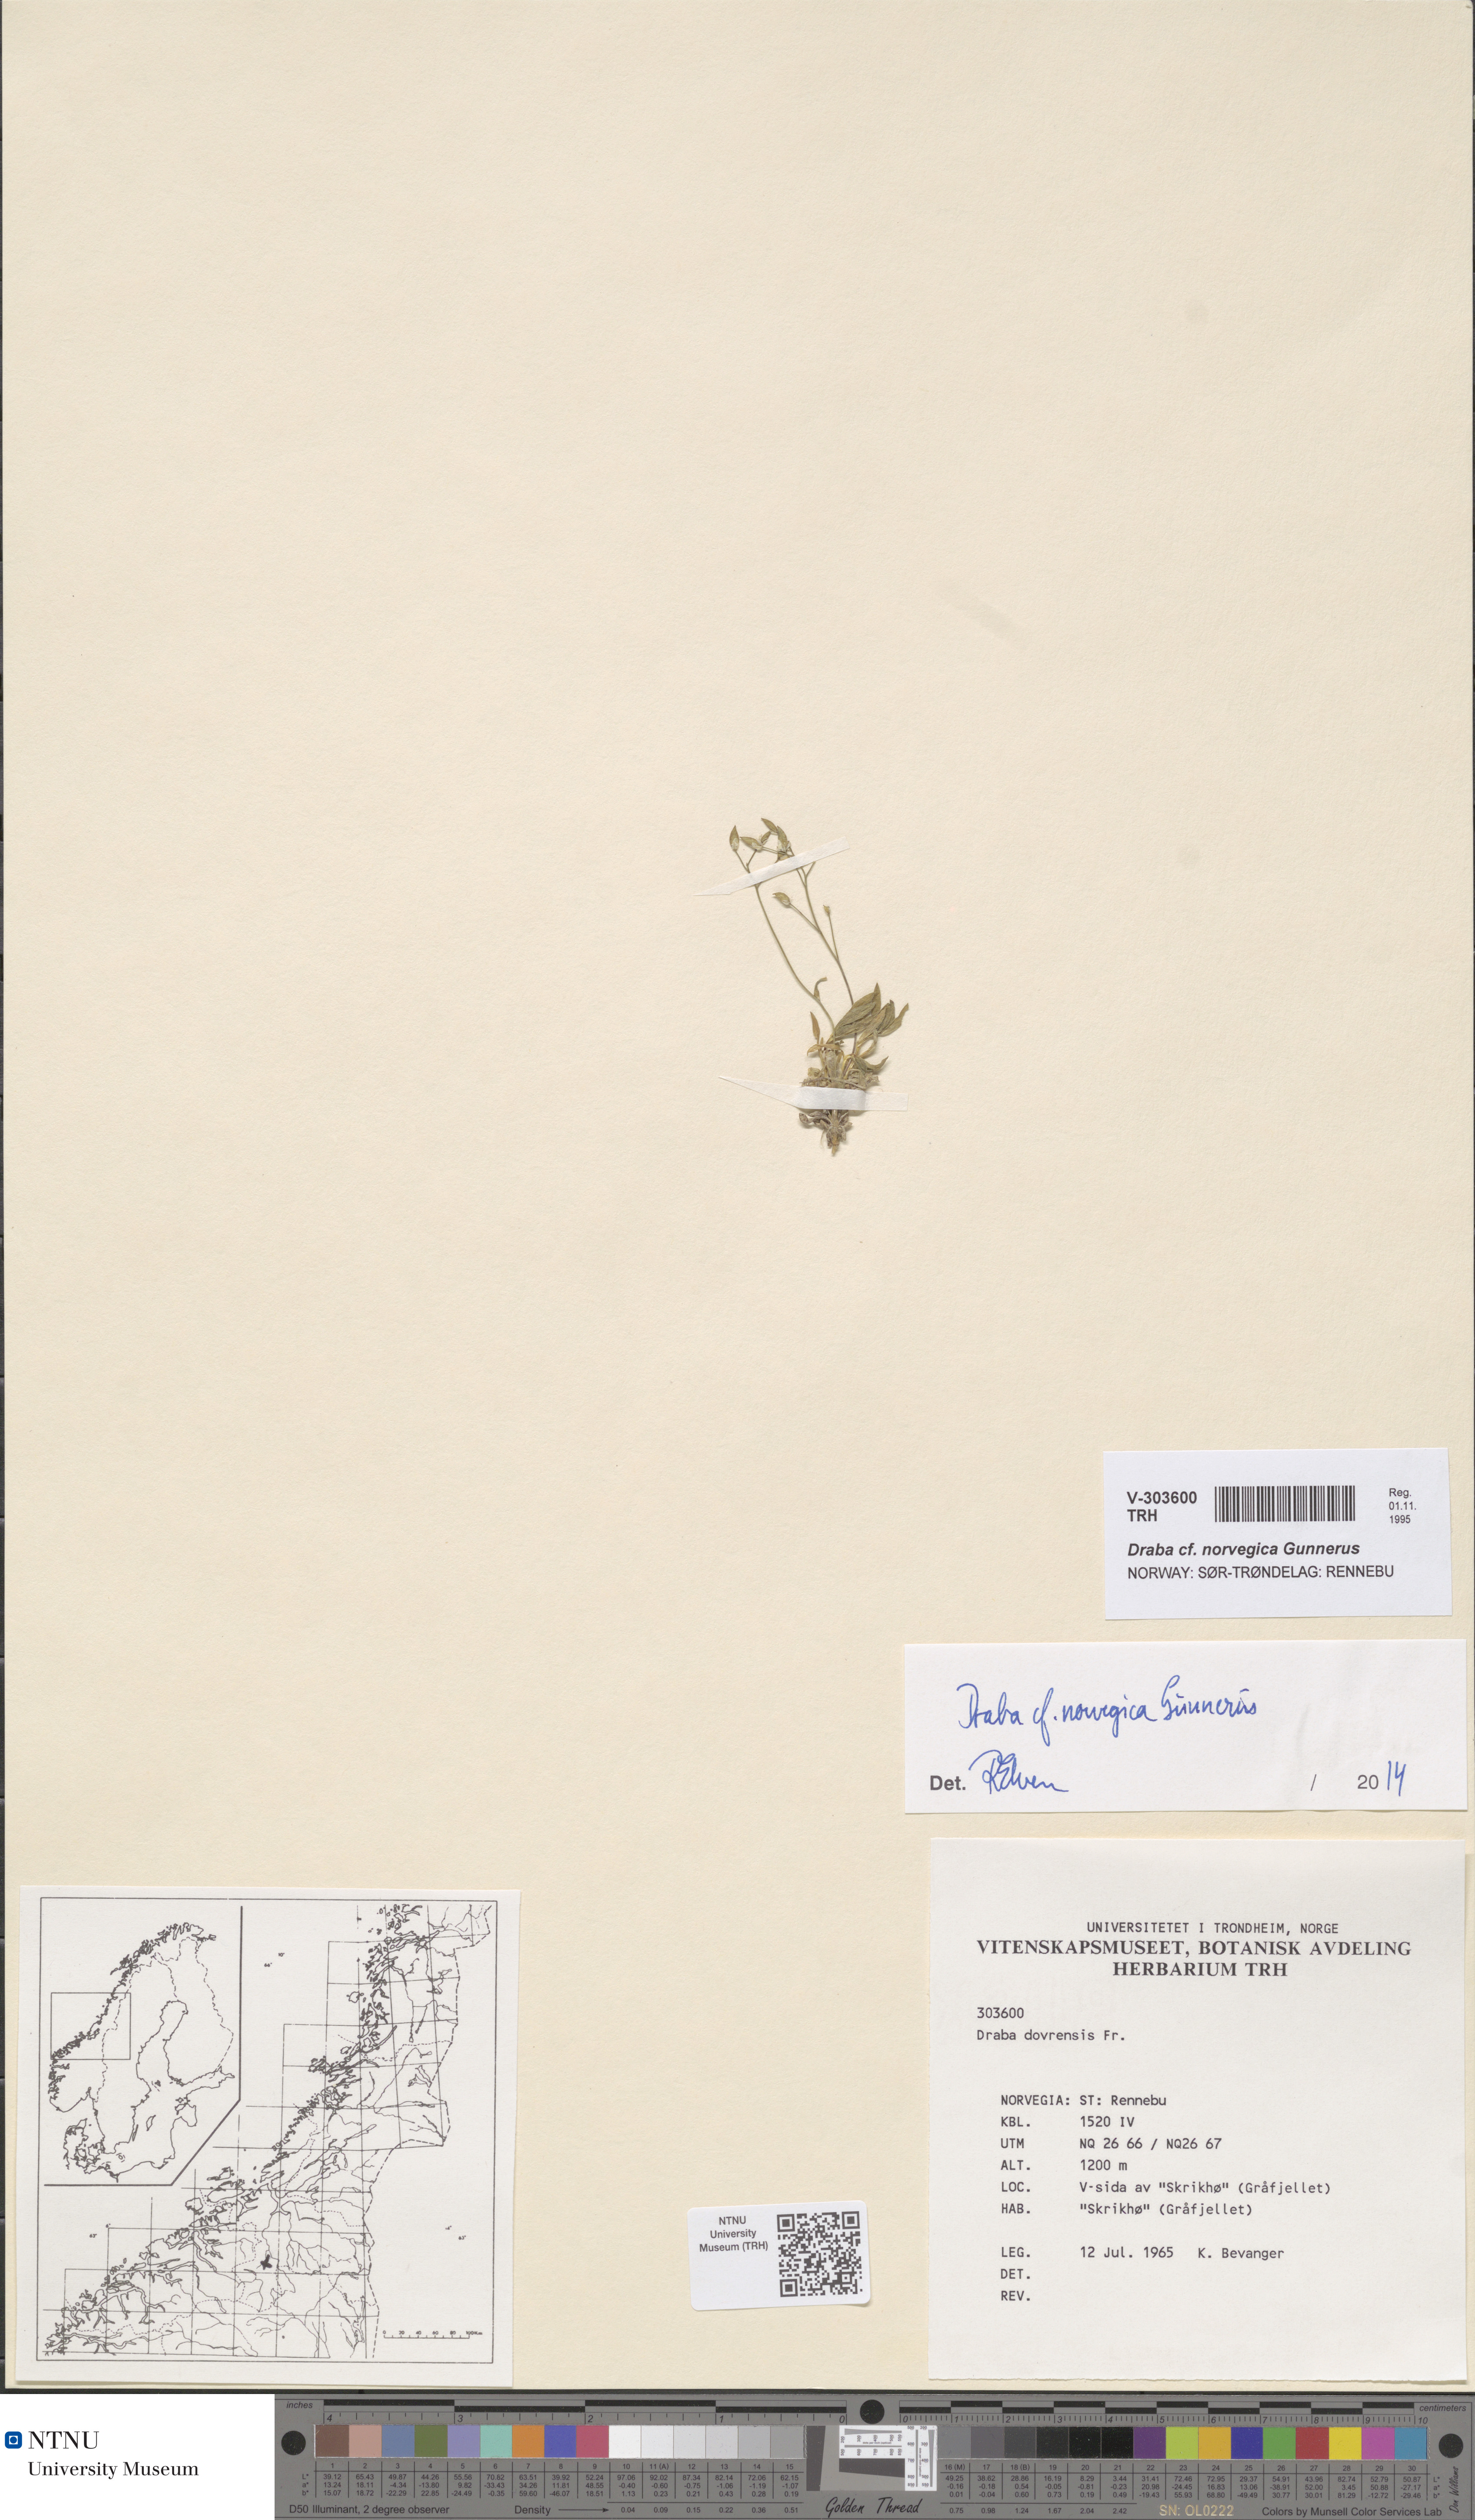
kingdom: Plantae
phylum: Tracheophyta
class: Magnoliopsida
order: Brassicales
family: Brassicaceae
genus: Draba
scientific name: Draba norvegica
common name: Rock whitlowgrass
